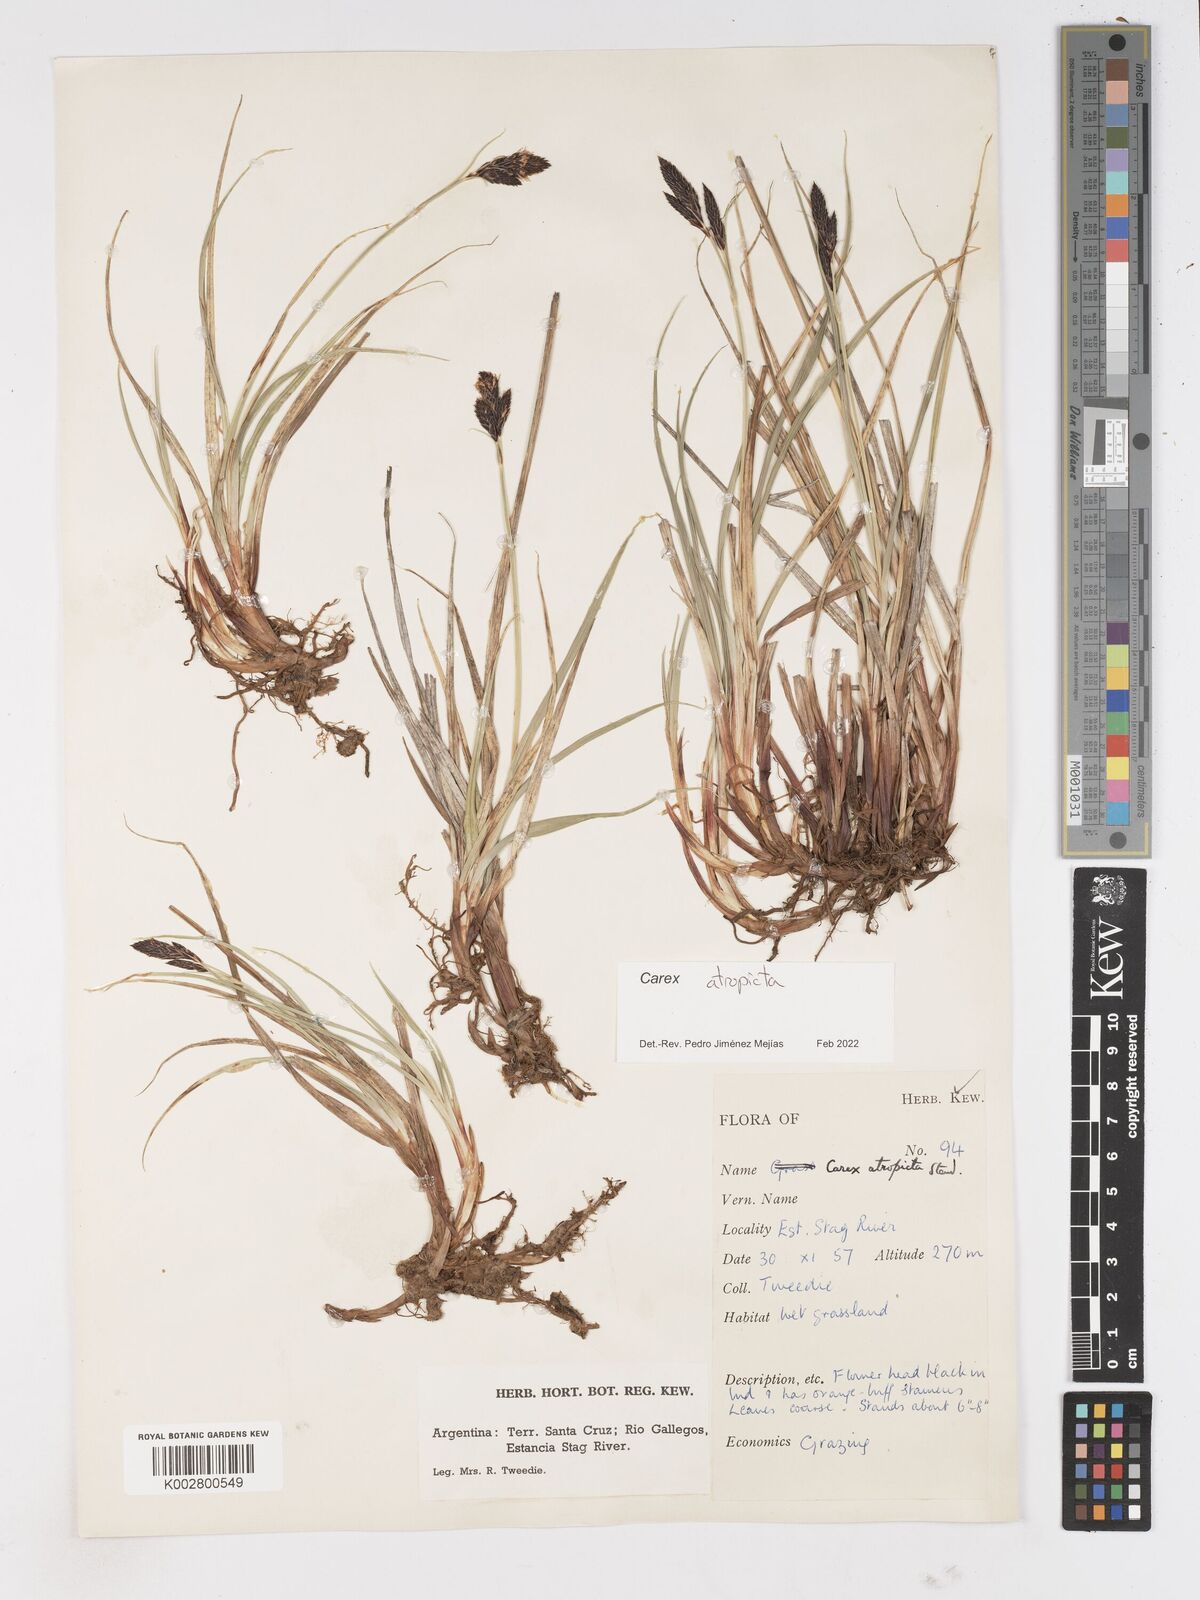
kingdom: Plantae
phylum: Tracheophyta
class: Liliopsida
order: Poales
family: Cyperaceae
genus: Carex
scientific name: Carex atropicta
